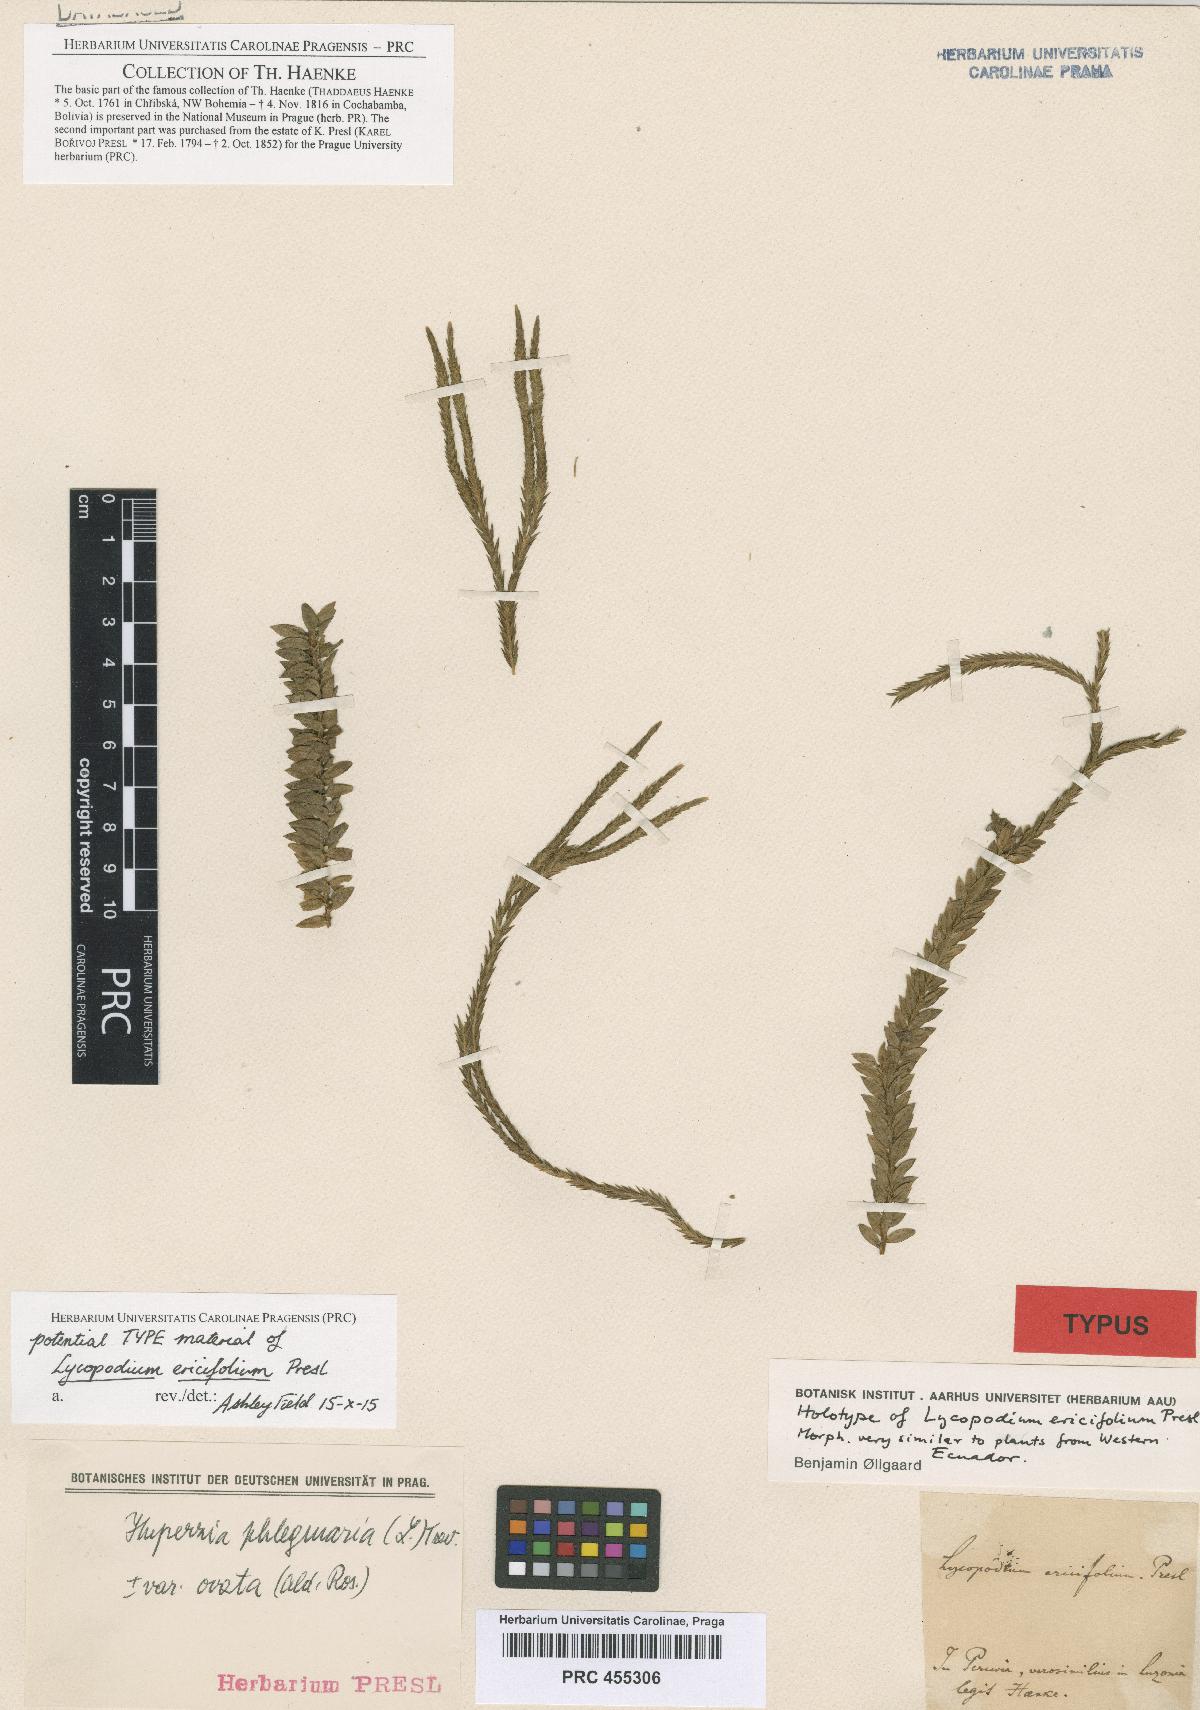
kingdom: Plantae
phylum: Tracheophyta
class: Lycopodiopsida
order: Lycopodiales
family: Lycopodiaceae
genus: Phlegmariurus
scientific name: Phlegmariurus ericifolius
